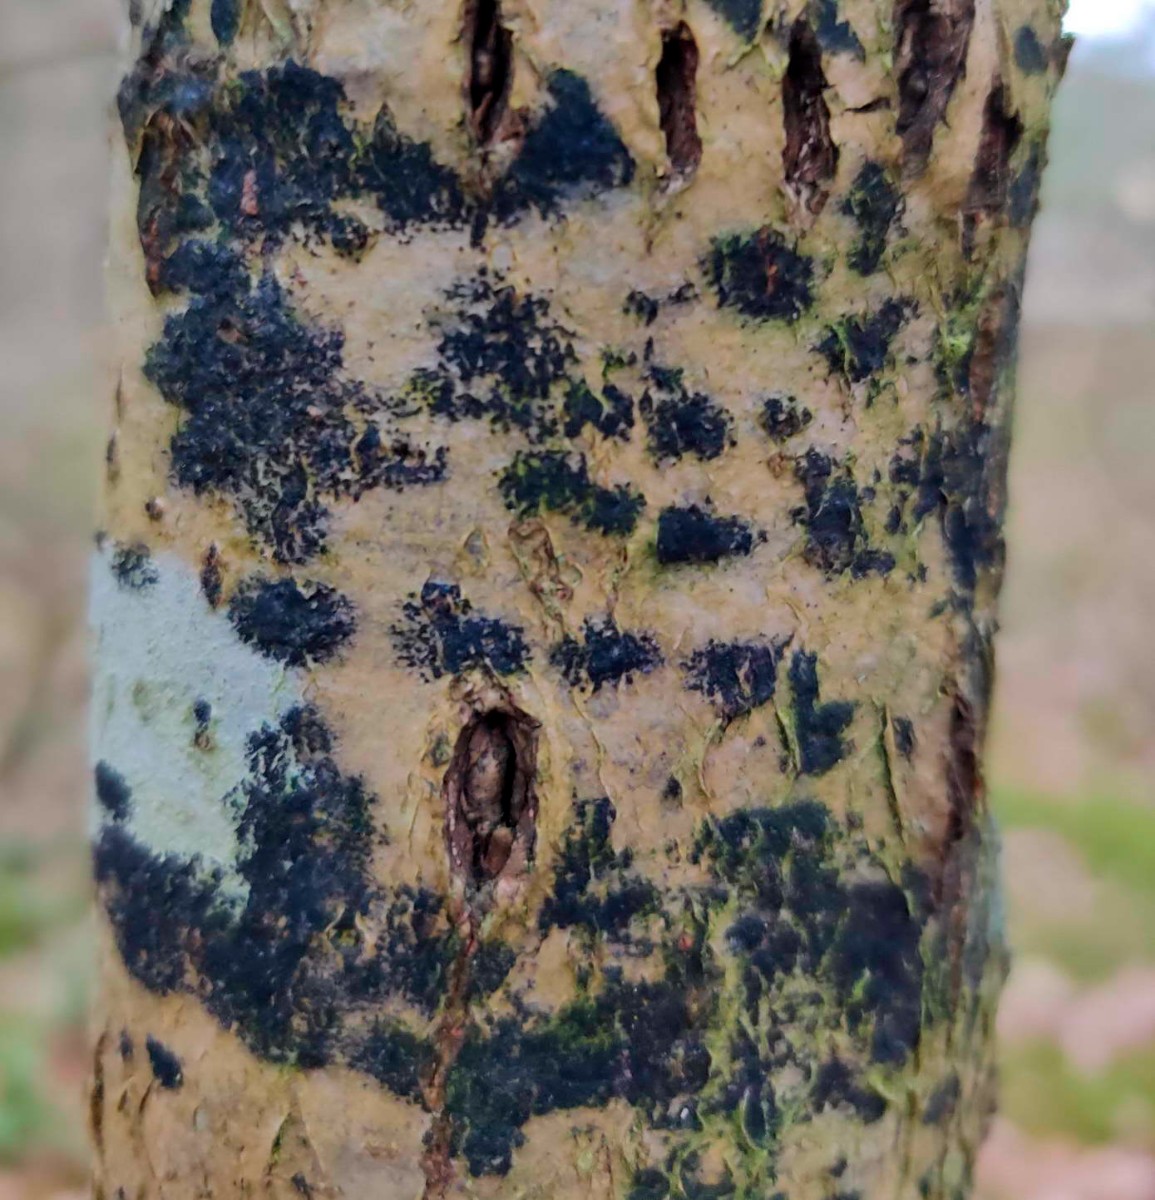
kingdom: Fungi
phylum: Ascomycota
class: Leotiomycetes
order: Rhytismatales
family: Ascodichaenaceae
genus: Ascodichaena
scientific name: Ascodichaena rugosa
